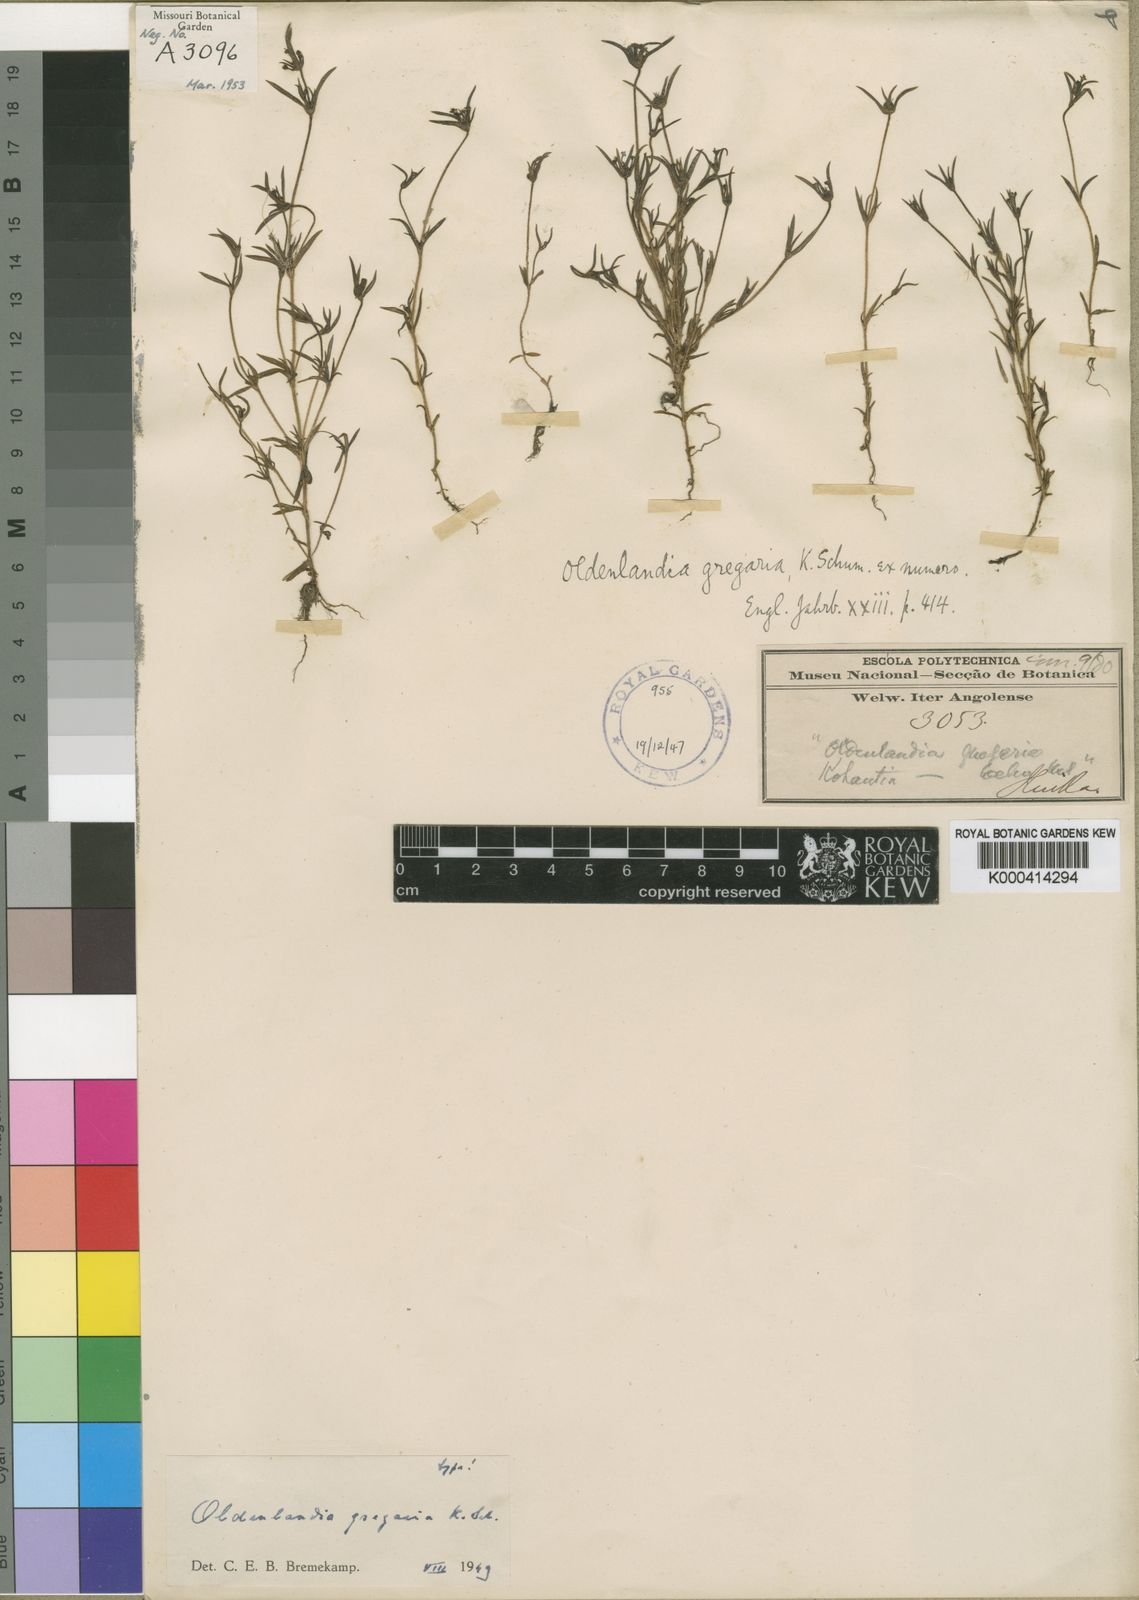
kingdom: Plantae
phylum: Tracheophyta
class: Magnoliopsida
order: Gentianales
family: Rubiaceae
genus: Oldenlandia
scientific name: Oldenlandia gregaria
